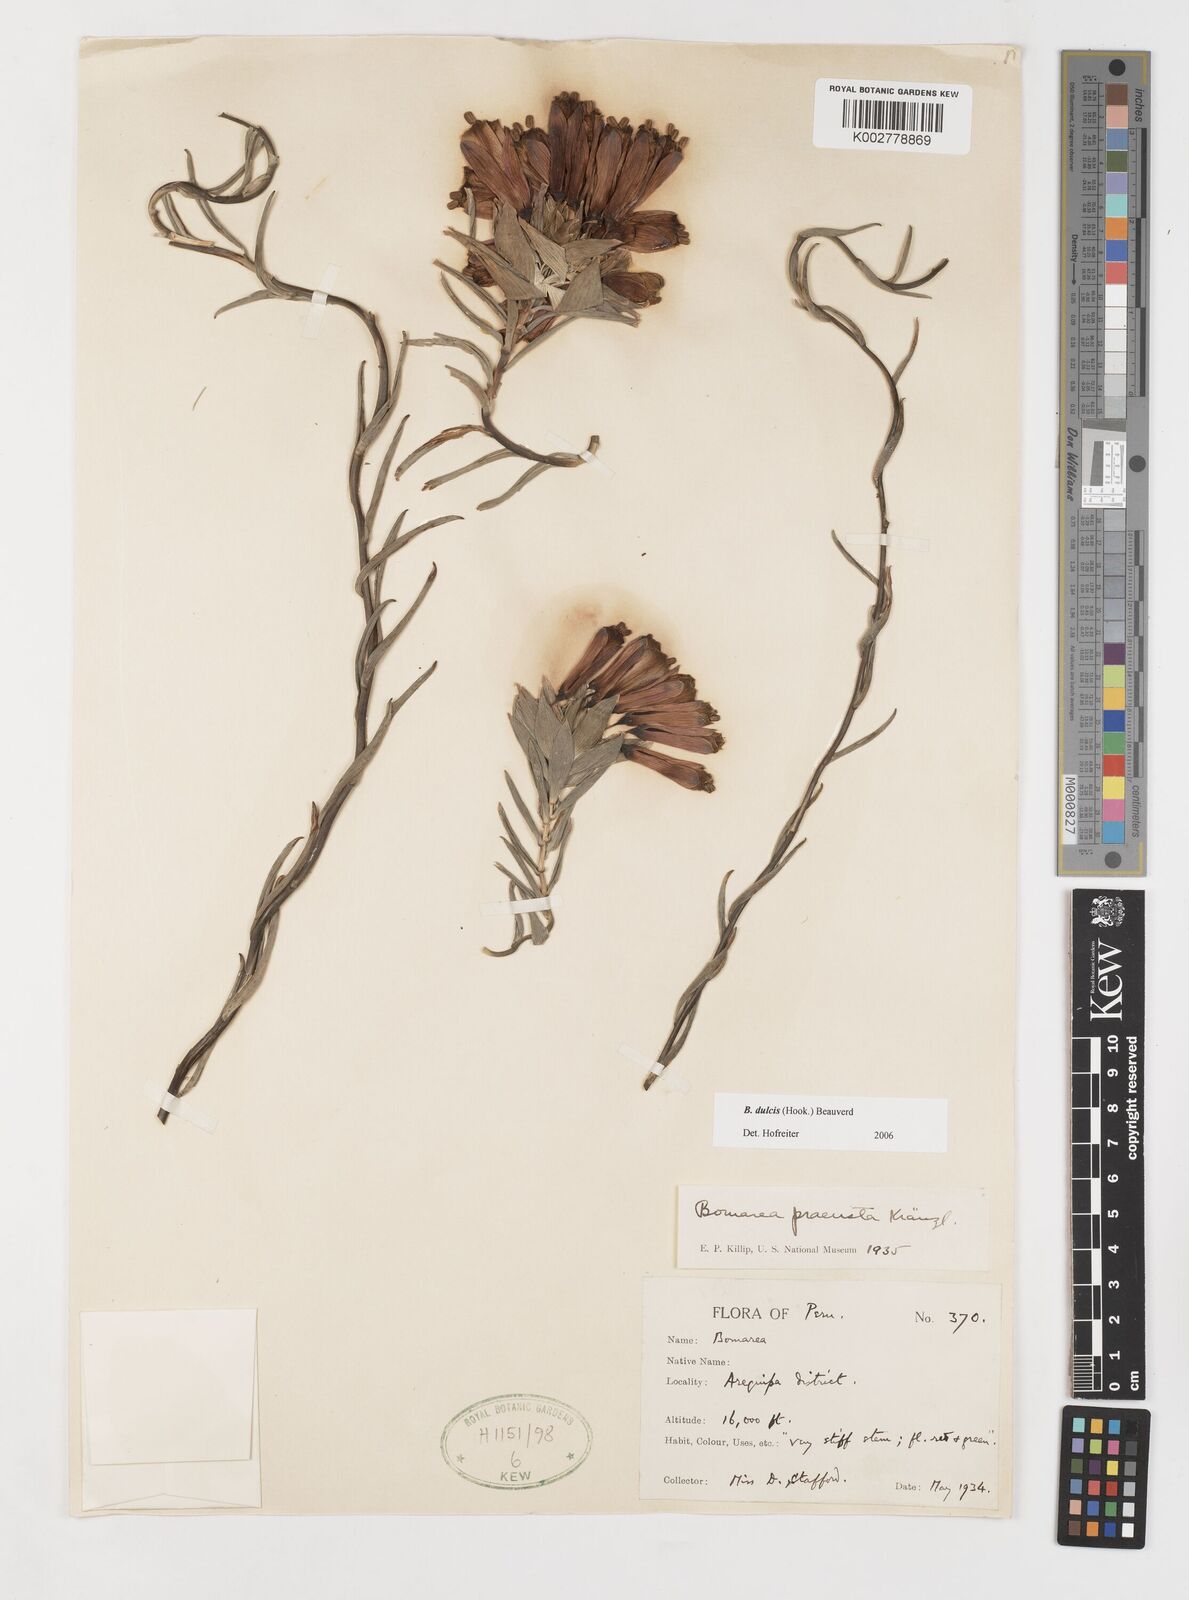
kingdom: Plantae
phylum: Tracheophyta
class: Liliopsida
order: Liliales
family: Alstroemeriaceae
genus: Bomarea
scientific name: Bomarea dulcis
